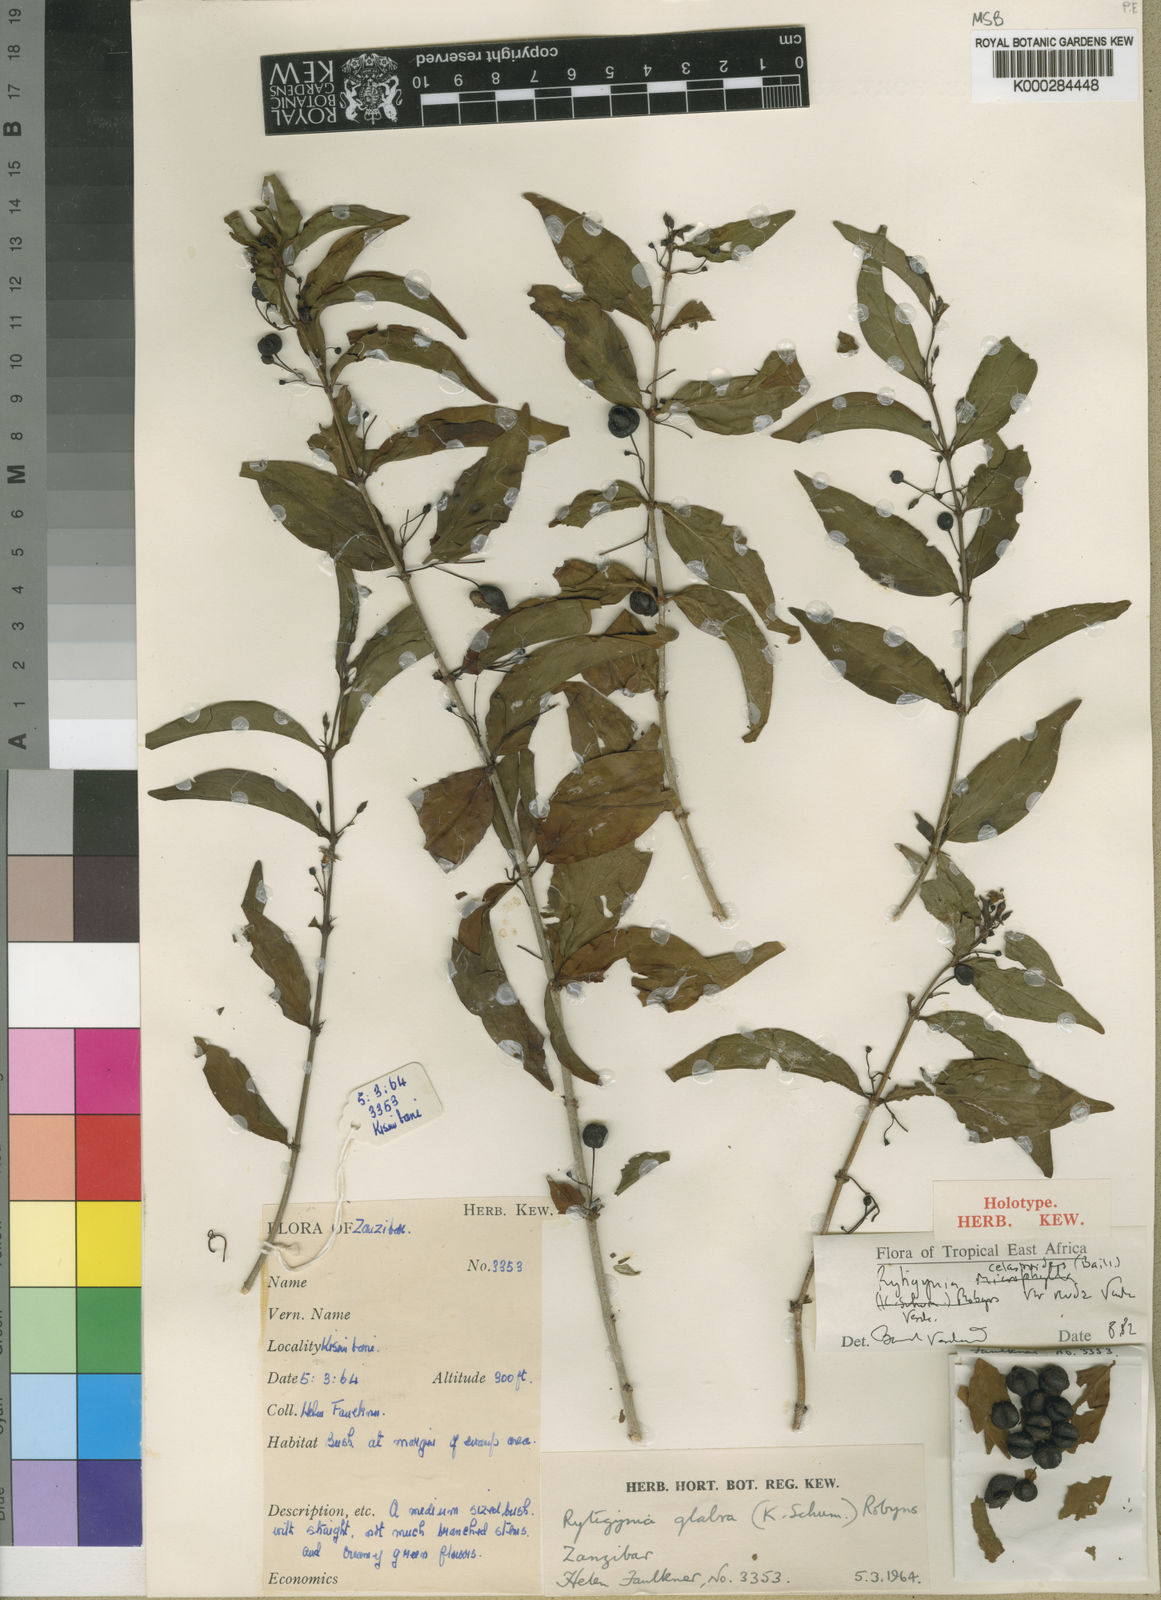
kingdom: Plantae
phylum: Tracheophyta
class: Magnoliopsida
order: Gentianales
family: Rubiaceae
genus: Rytigynia
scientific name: Rytigynia celastroides
